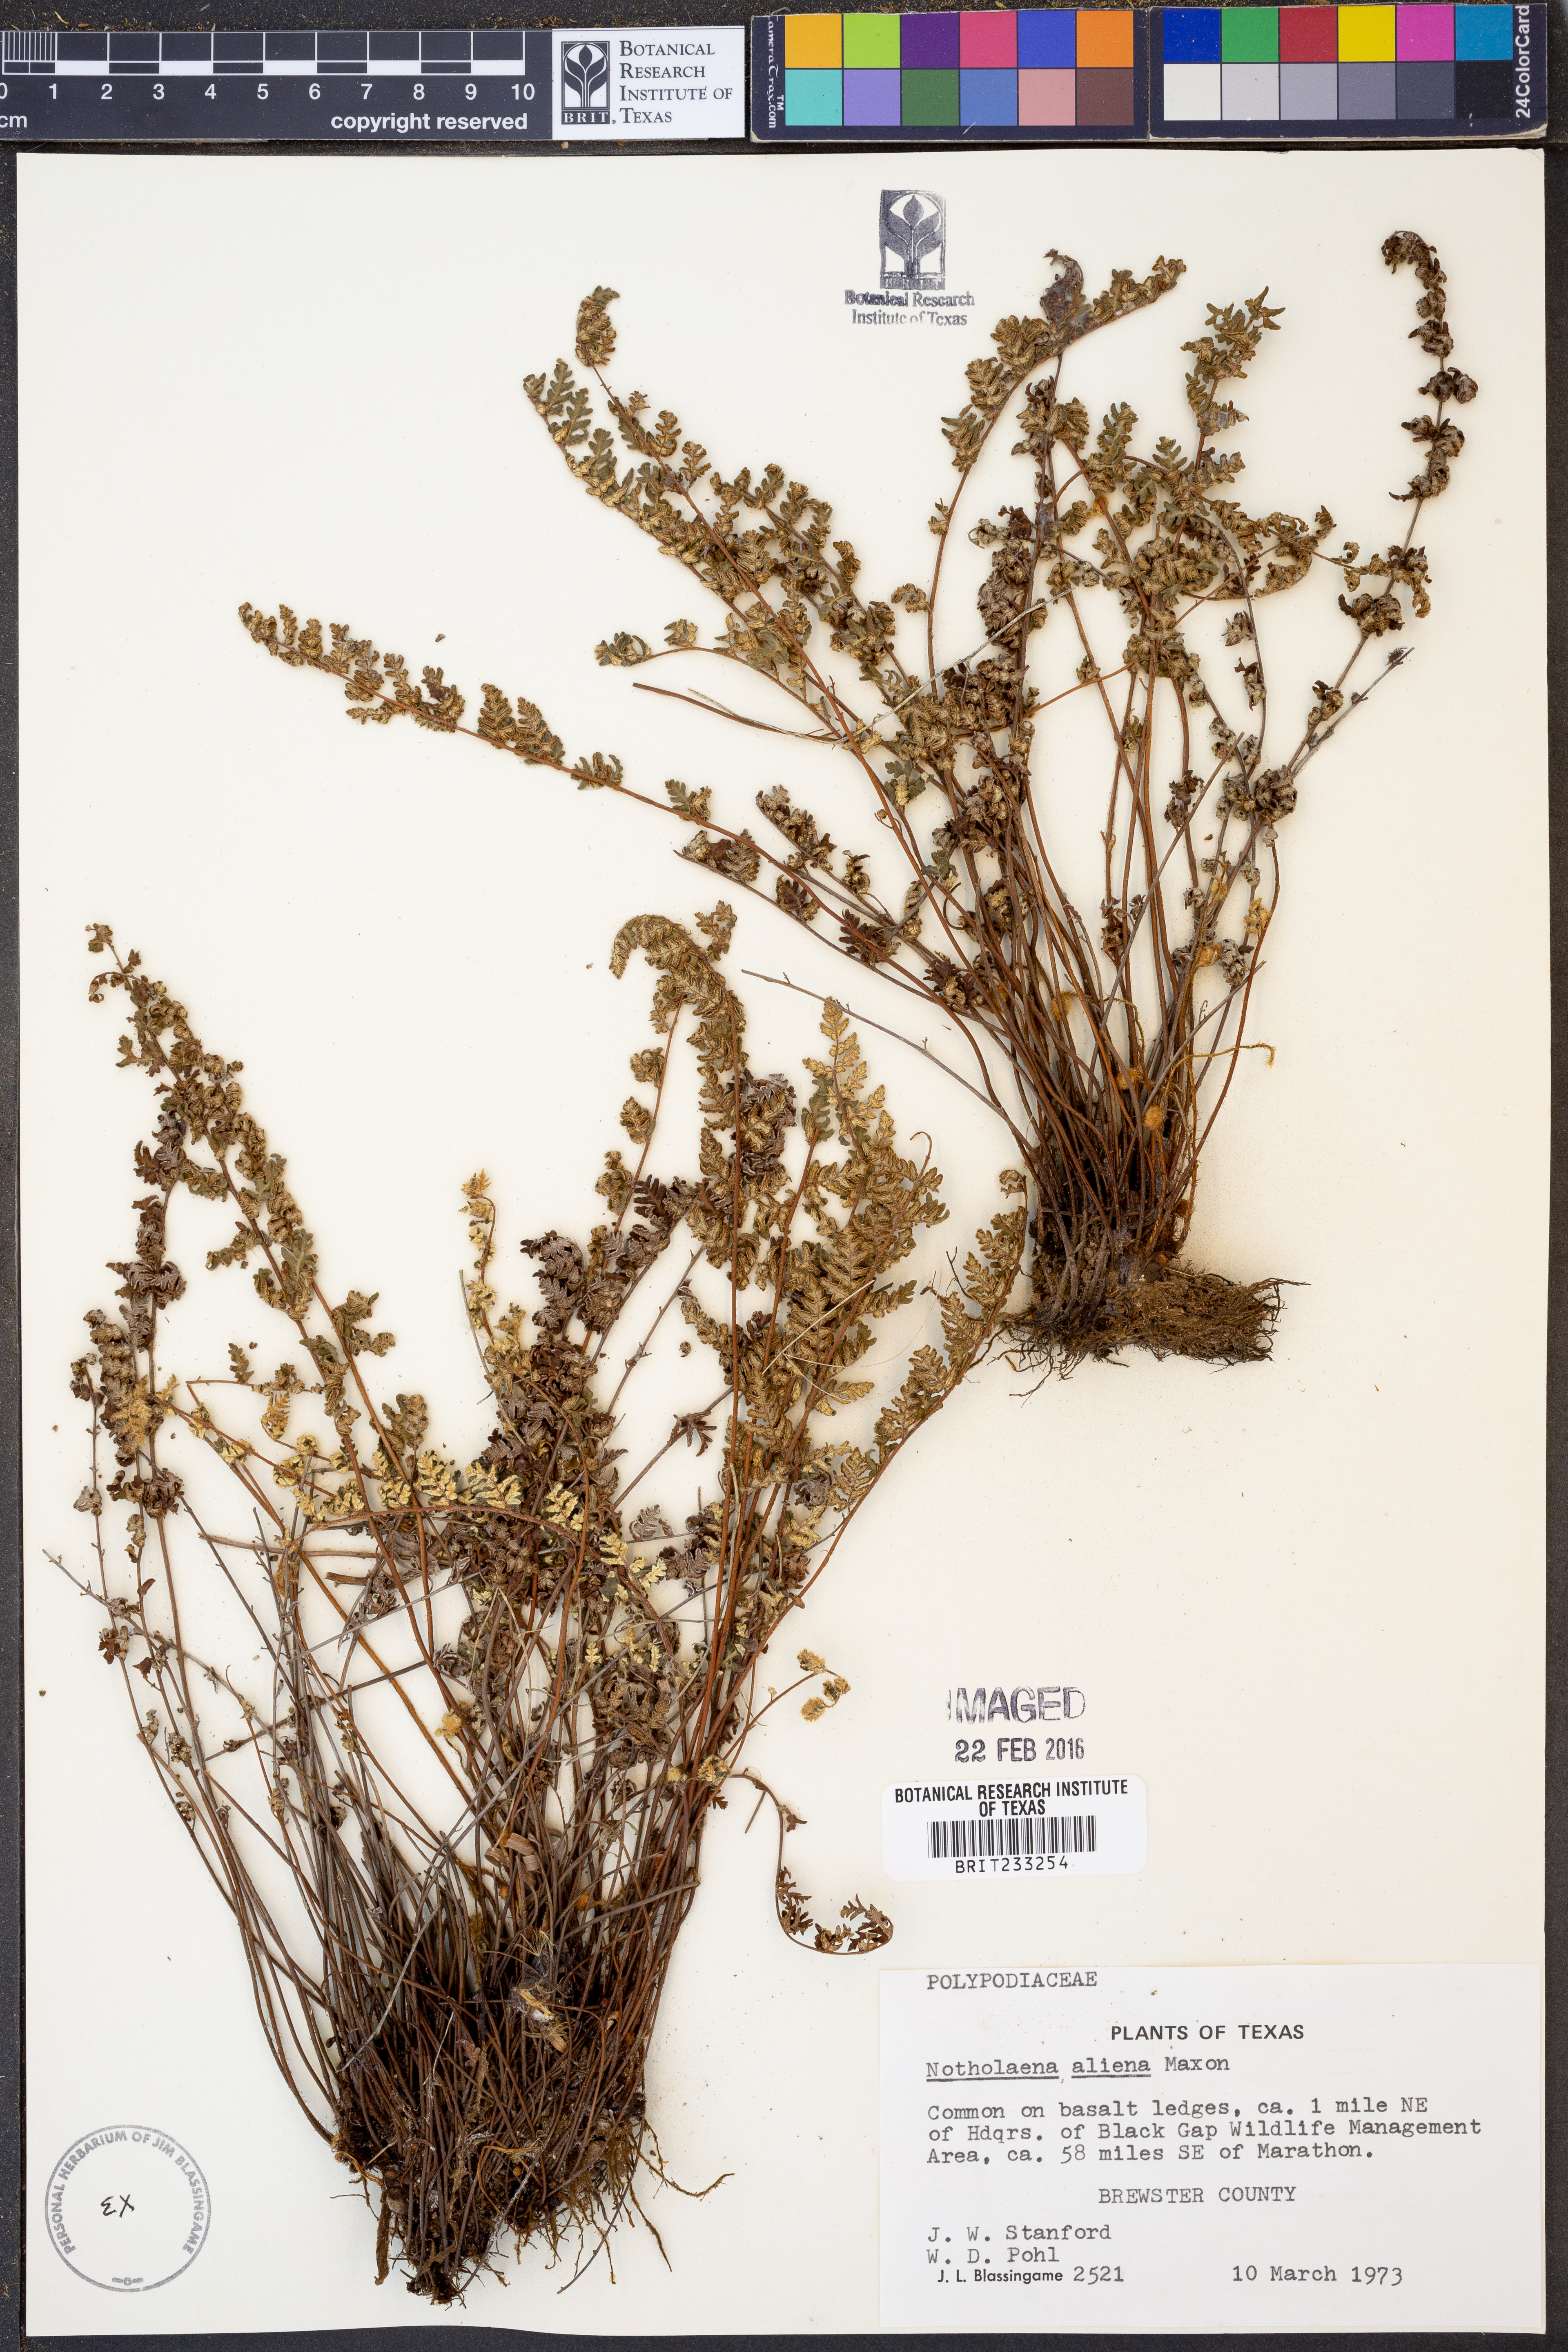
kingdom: Plantae
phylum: Tracheophyta
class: Polypodiopsida
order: Polypodiales
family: Pteridaceae
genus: Notholaena
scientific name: Notholaena aliena
